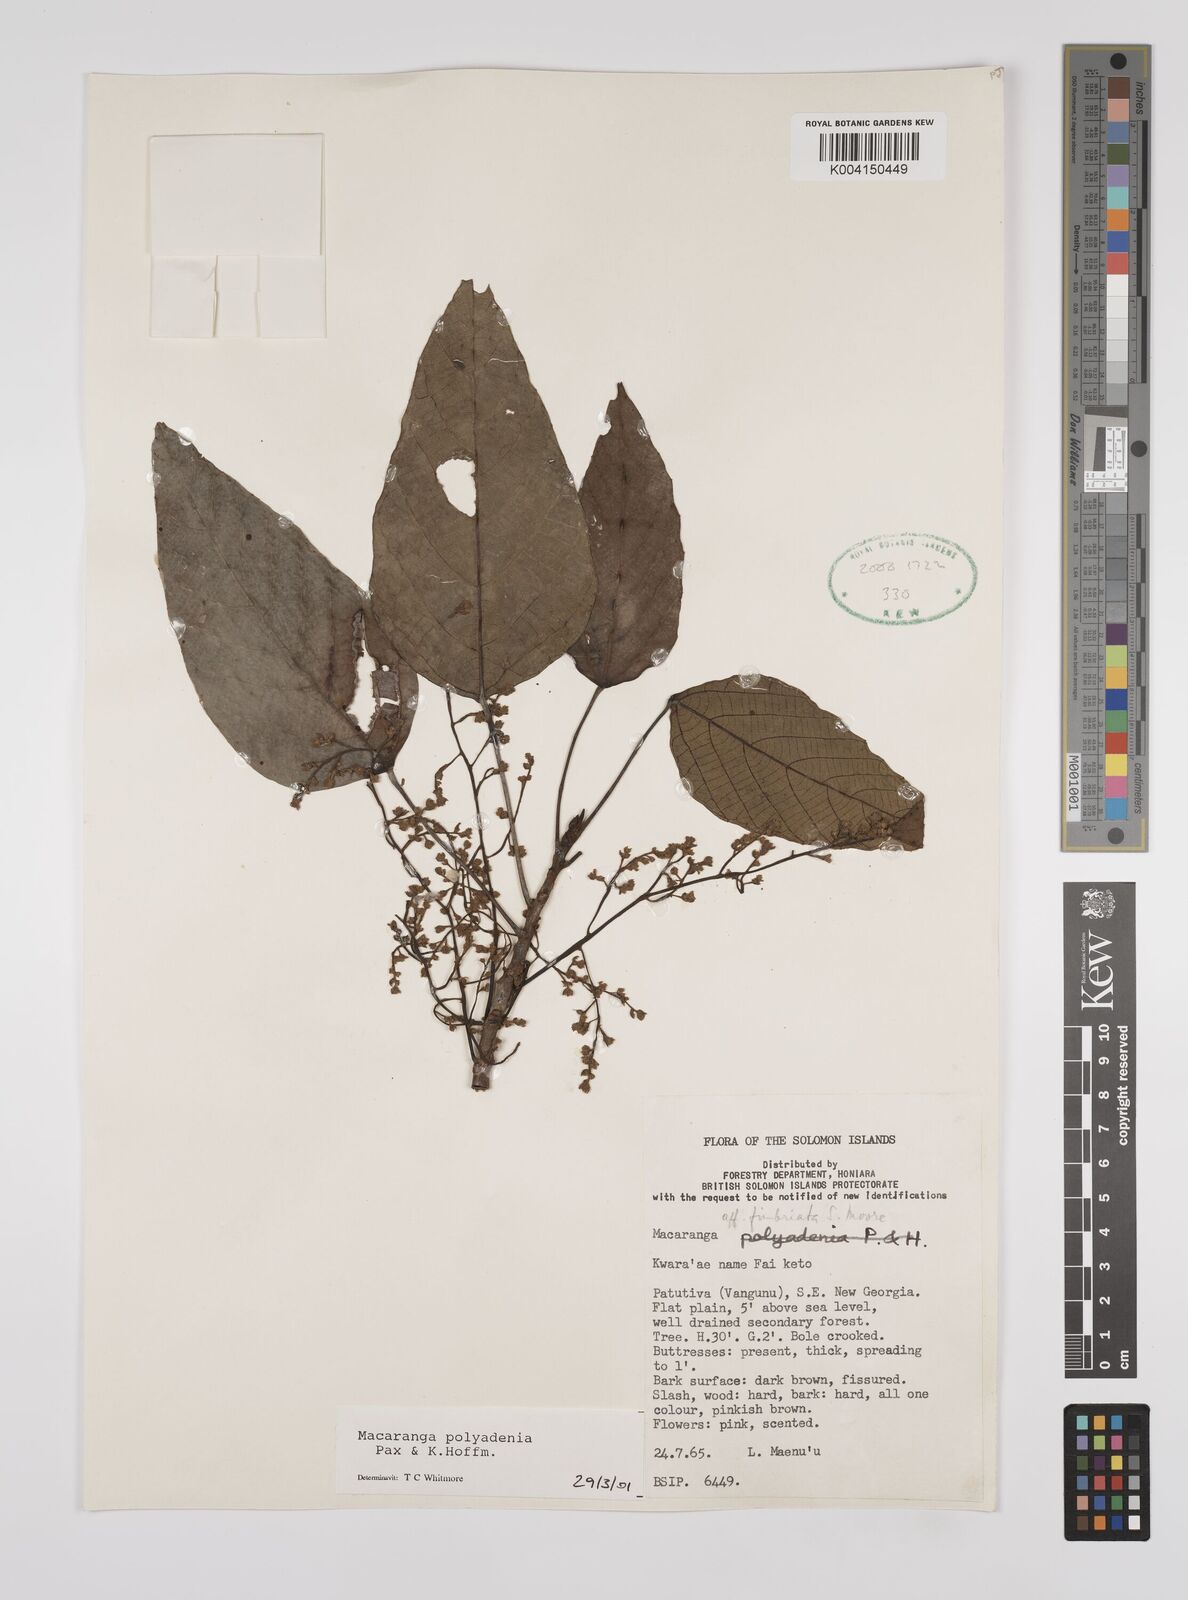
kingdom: Plantae
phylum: Tracheophyta
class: Magnoliopsida
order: Malpighiales
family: Euphorbiaceae
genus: Macaranga
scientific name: Macaranga polyadenia
